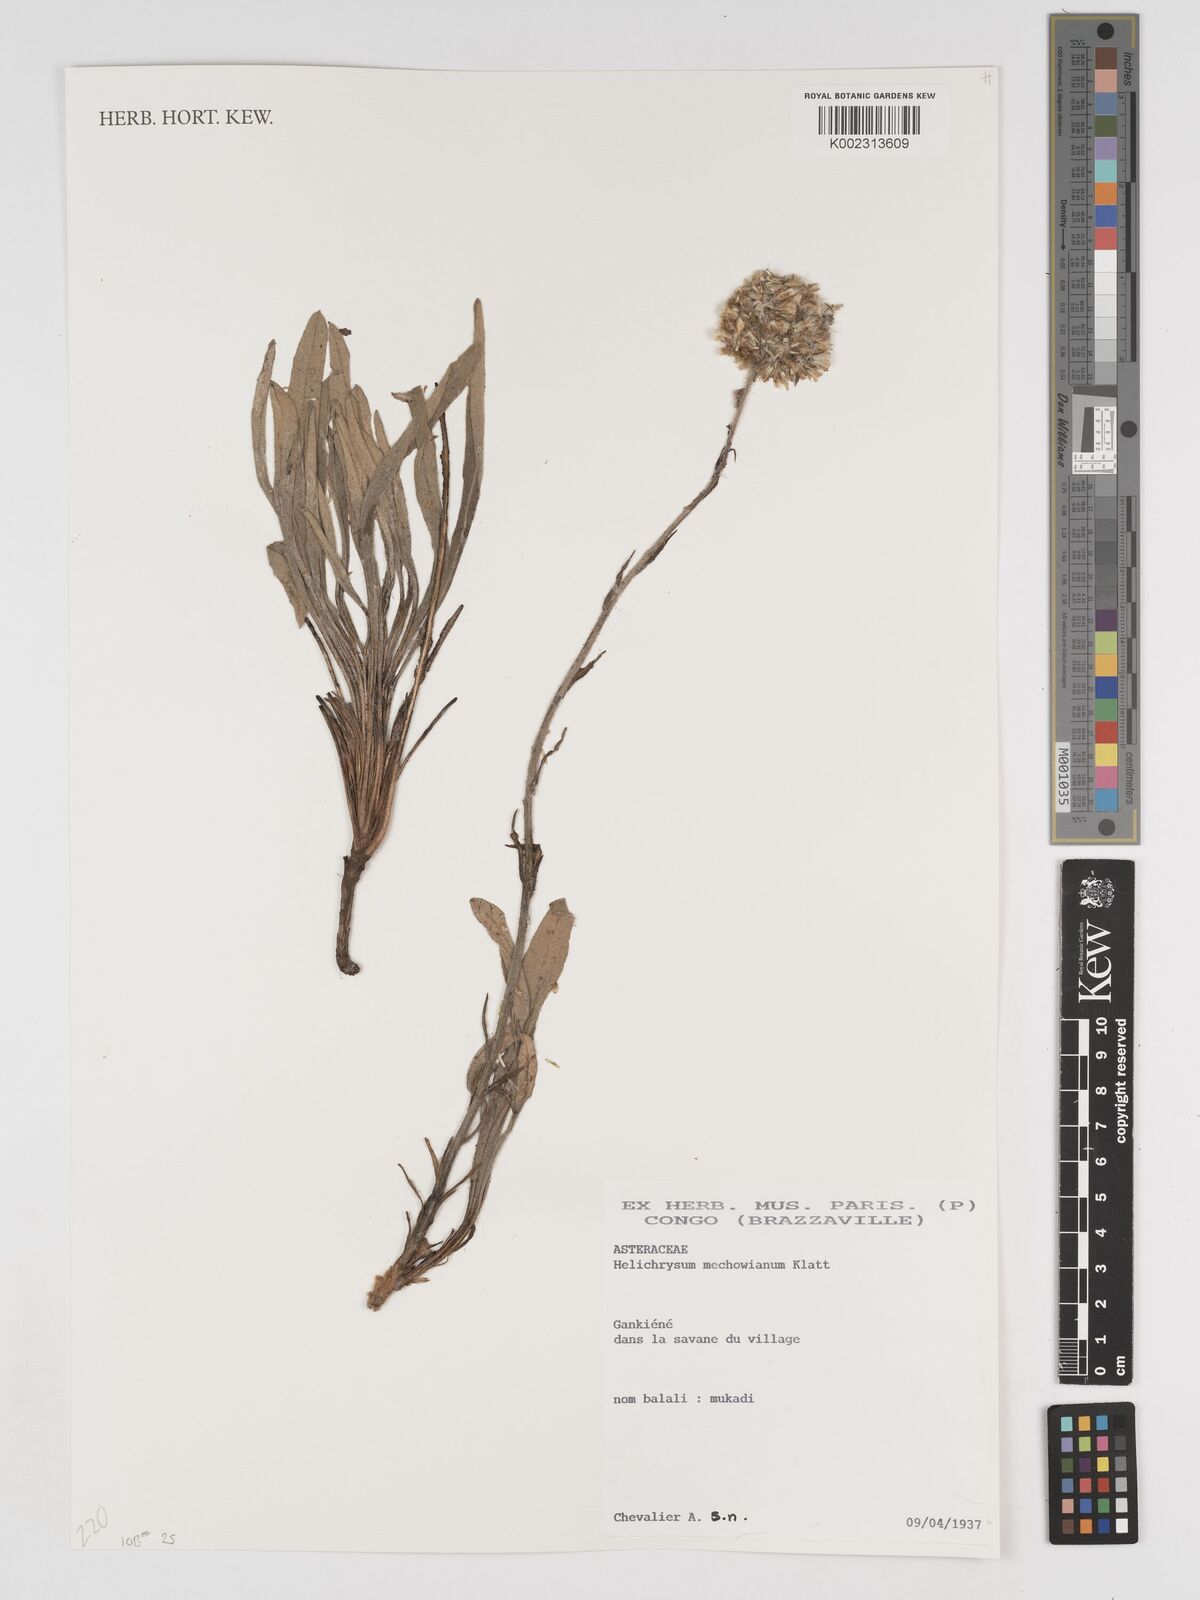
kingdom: Plantae
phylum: Tracheophyta
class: Magnoliopsida
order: Asterales
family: Asteraceae
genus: Helichrysum
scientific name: Helichrysum mechowianum
